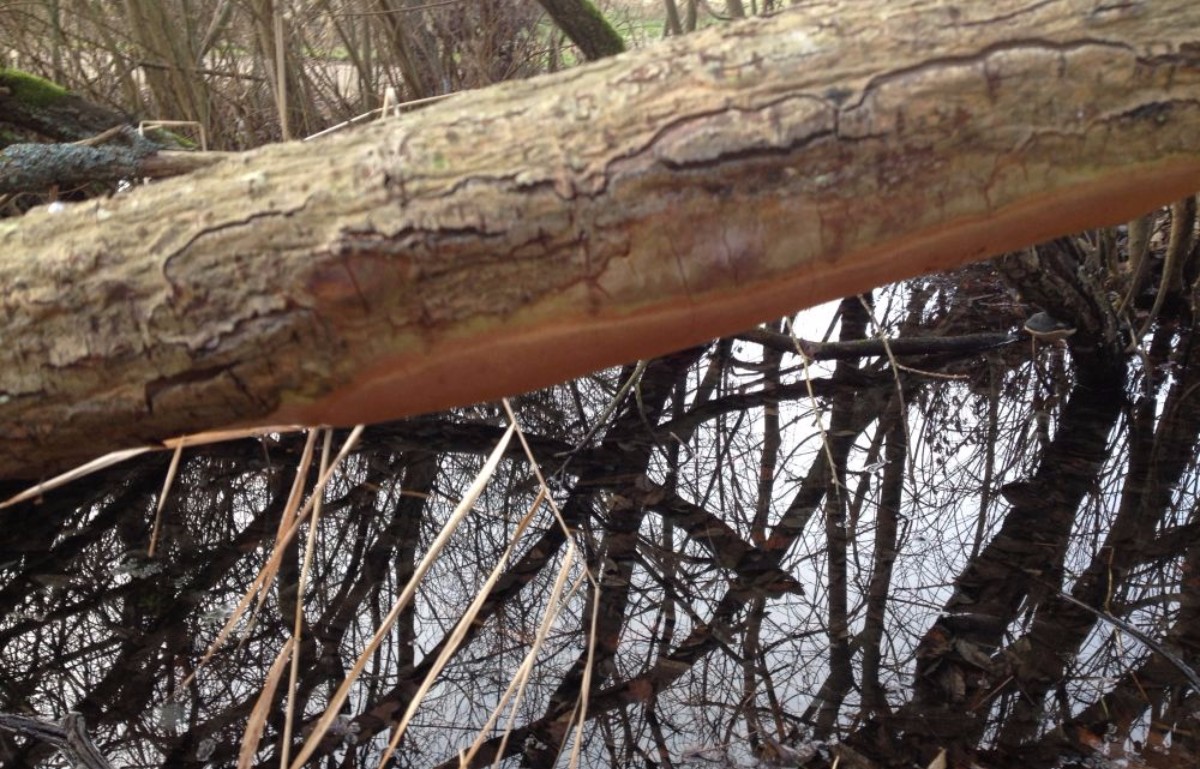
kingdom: Fungi
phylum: Basidiomycota
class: Agaricomycetes
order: Hymenochaetales
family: Hymenochaetaceae
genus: Fomitiporia
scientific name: Fomitiporia punctata
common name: pude-ildporesvamp
